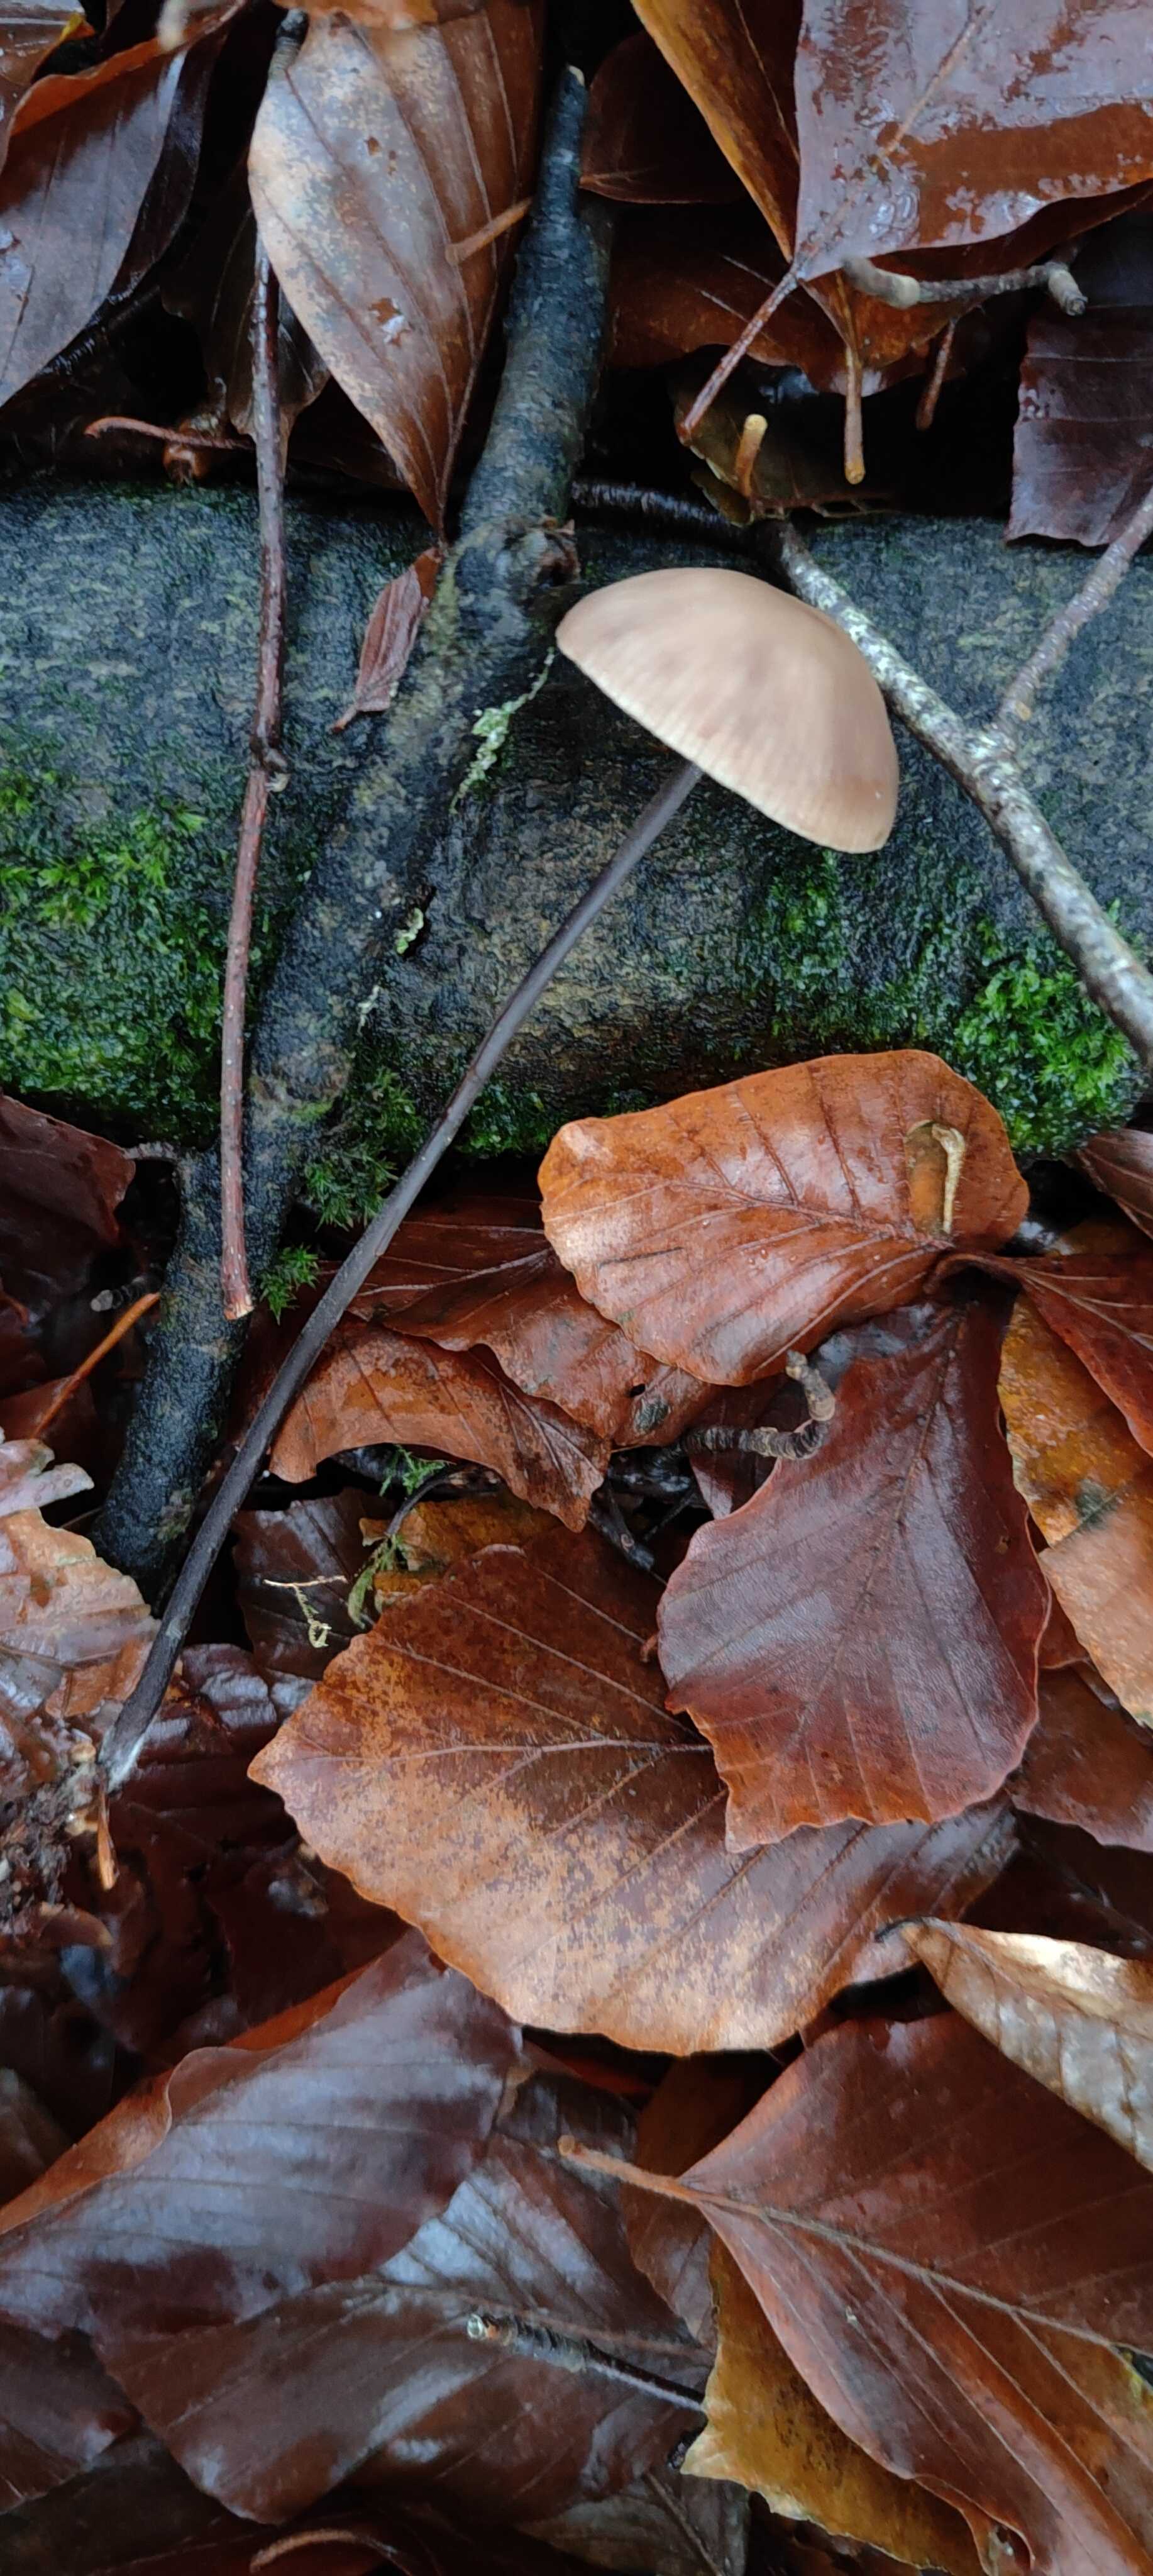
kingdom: Fungi
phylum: Basidiomycota
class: Agaricomycetes
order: Agaricales
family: Omphalotaceae
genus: Mycetinis
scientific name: Mycetinis alliaceus
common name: stor løghat
